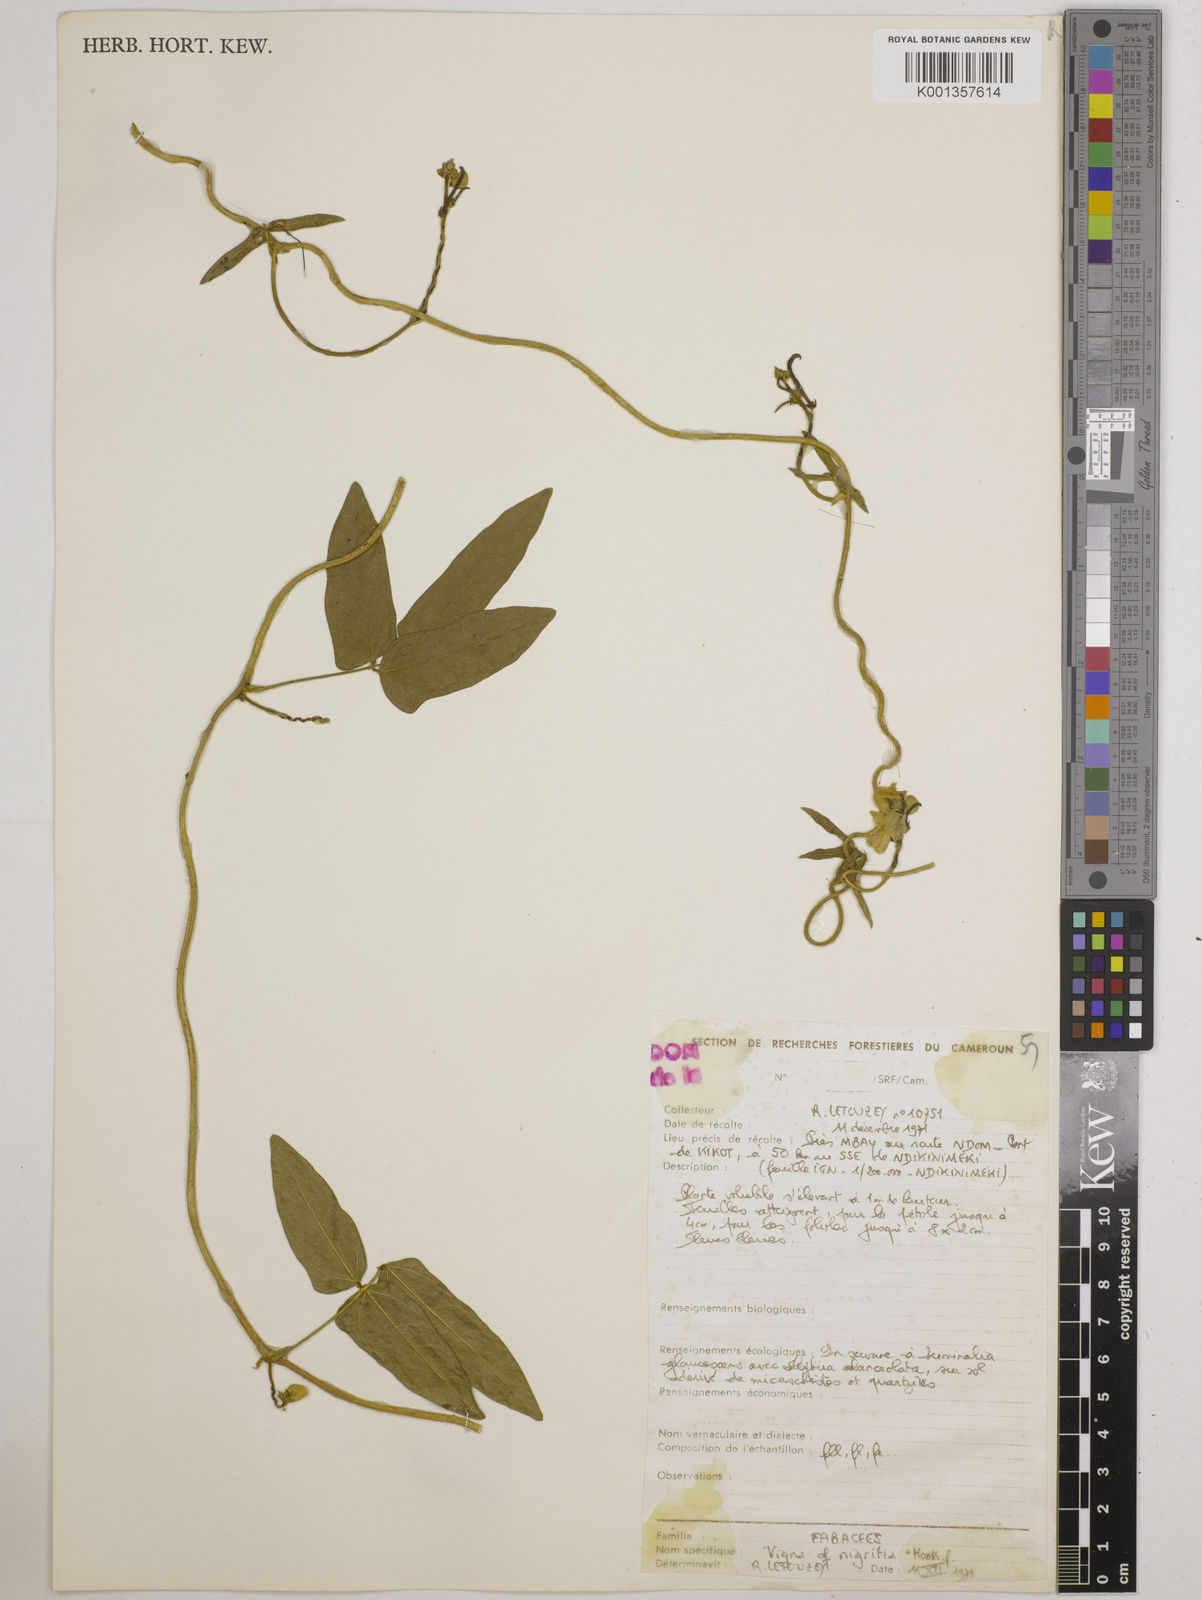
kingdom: Plantae
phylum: Tracheophyta
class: Magnoliopsida
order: Fabales
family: Fabaceae
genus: Vigna
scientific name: Vigna nigritia
